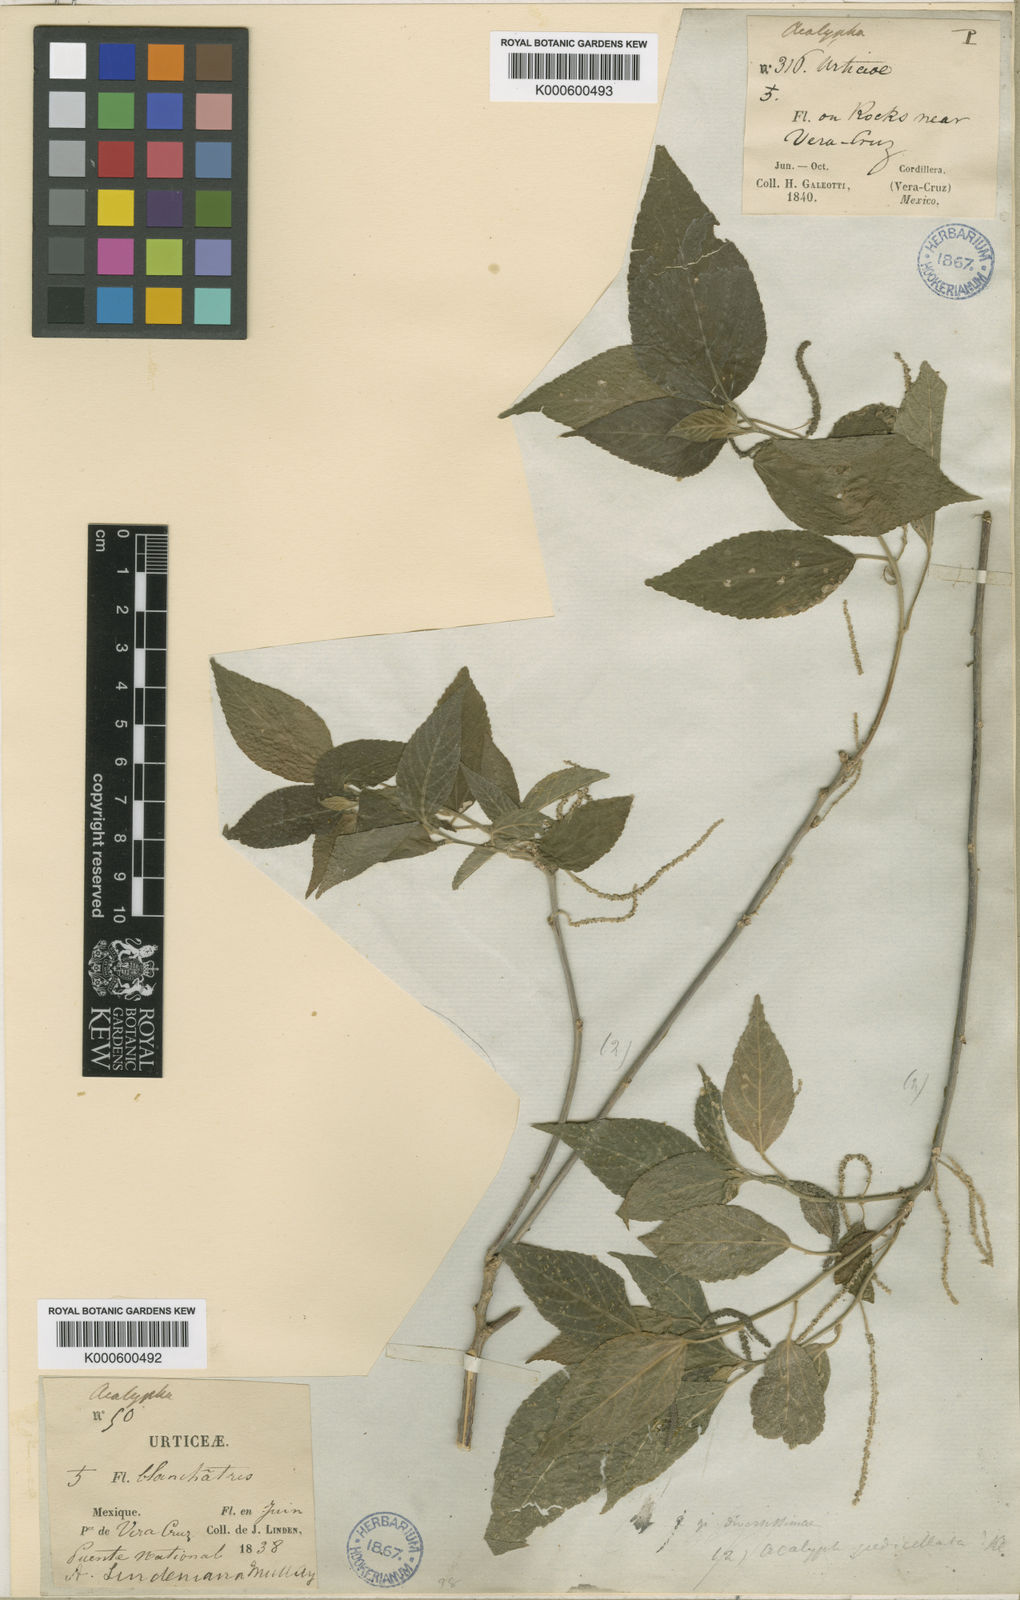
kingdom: Plantae
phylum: Tracheophyta
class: Magnoliopsida
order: Malpighiales
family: Euphorbiaceae
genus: Acalypha
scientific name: Acalypha
